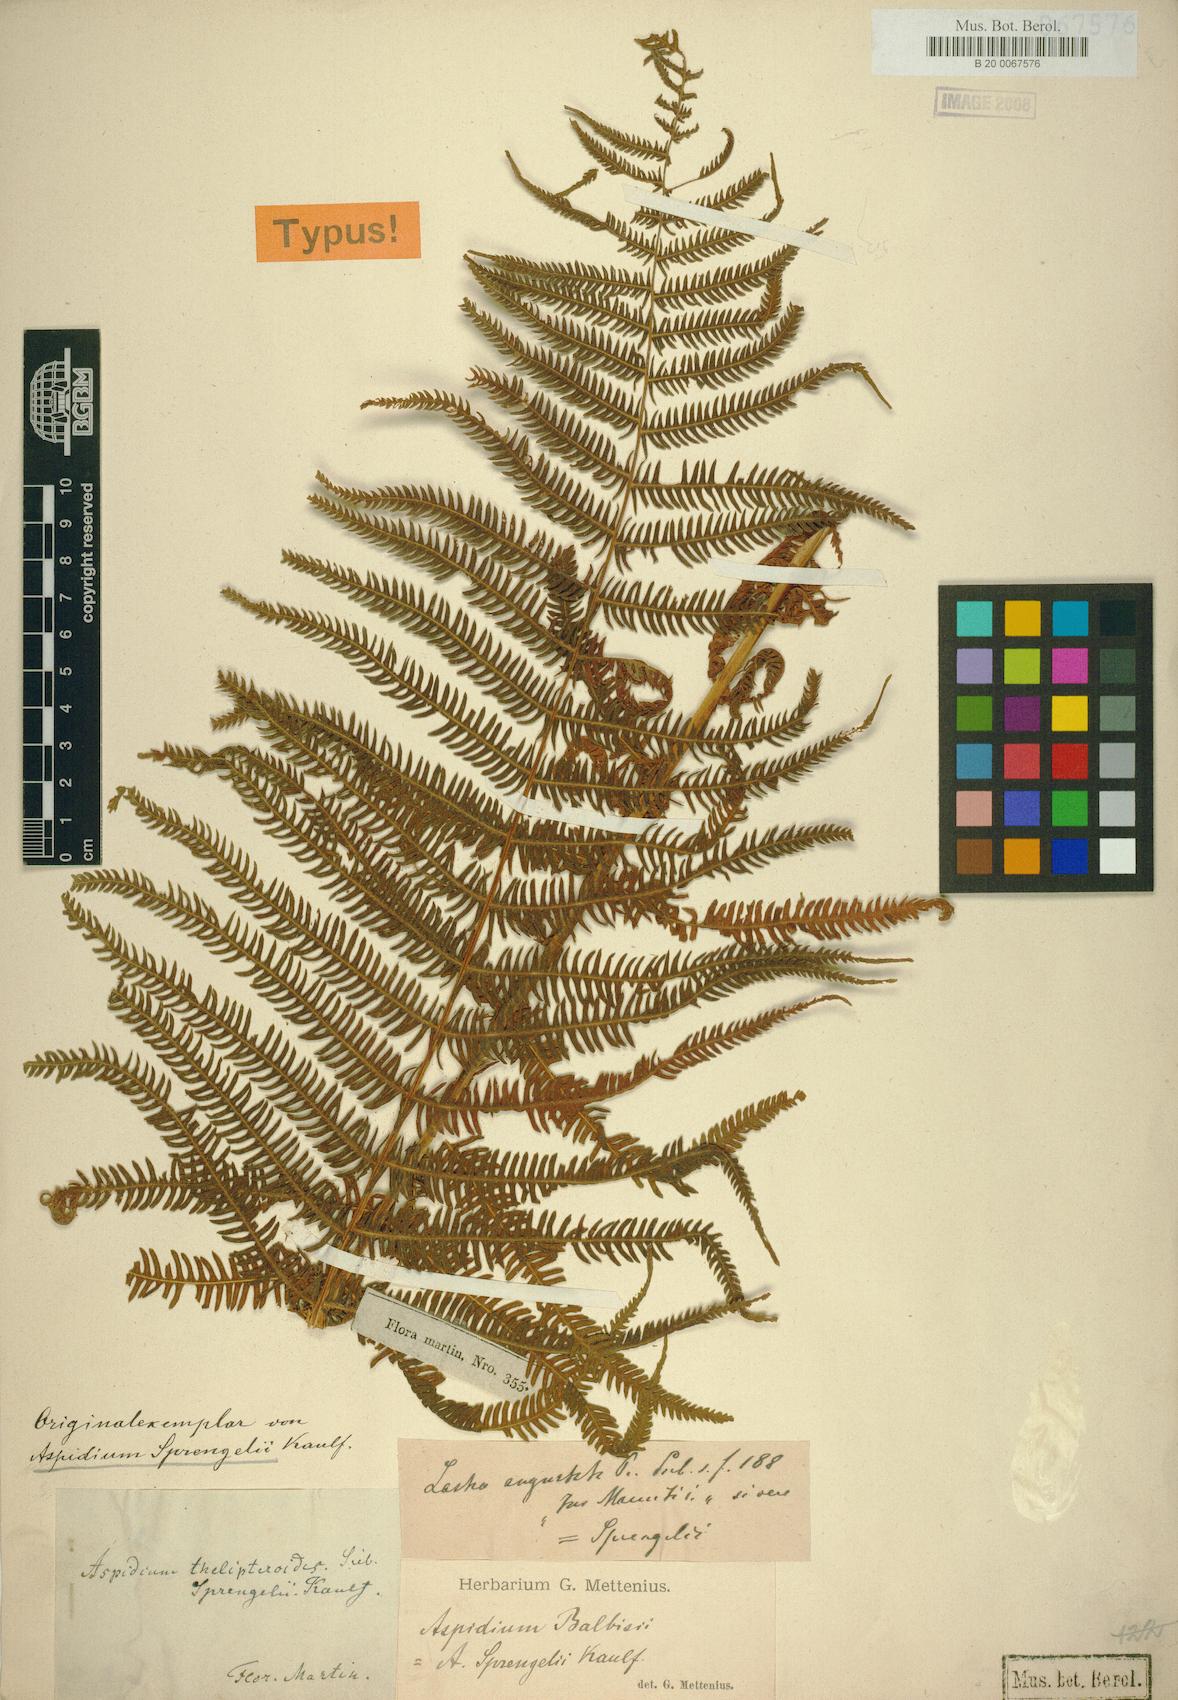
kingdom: Plantae
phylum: Tracheophyta
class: Polypodiopsida
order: Polypodiales
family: Thelypteridaceae
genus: Amauropelta
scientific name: Amauropelta balbisii
